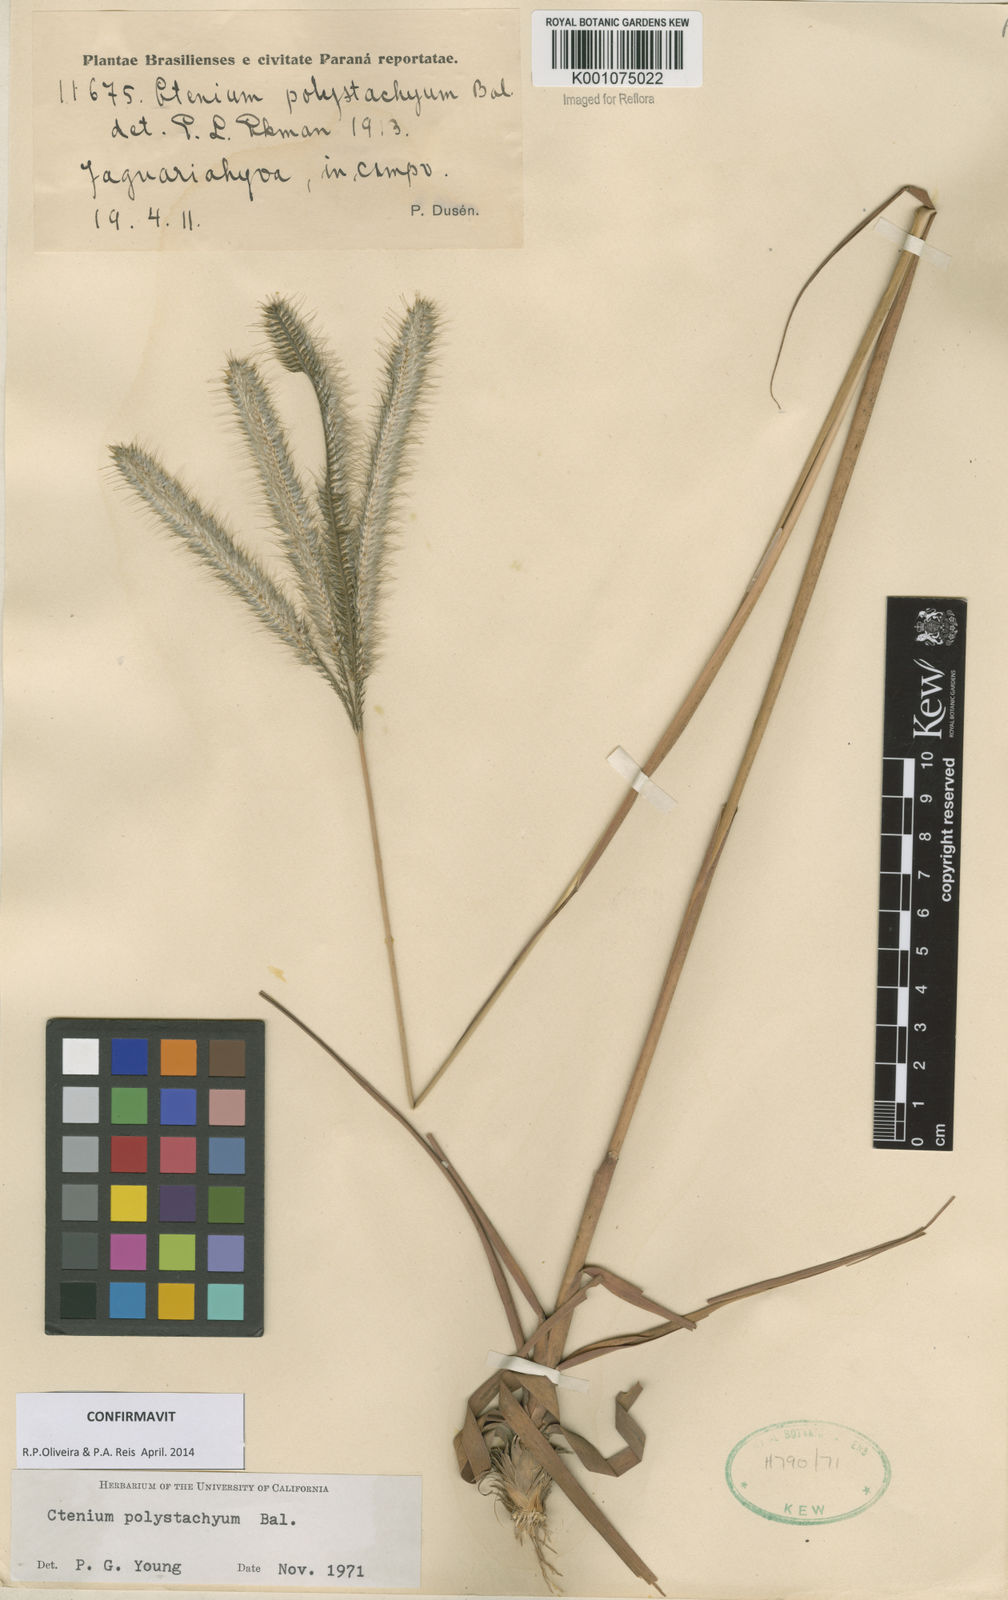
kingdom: Plantae
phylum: Tracheophyta
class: Liliopsida
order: Poales
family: Poaceae
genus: Ctenium
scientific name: Ctenium polystachyum
